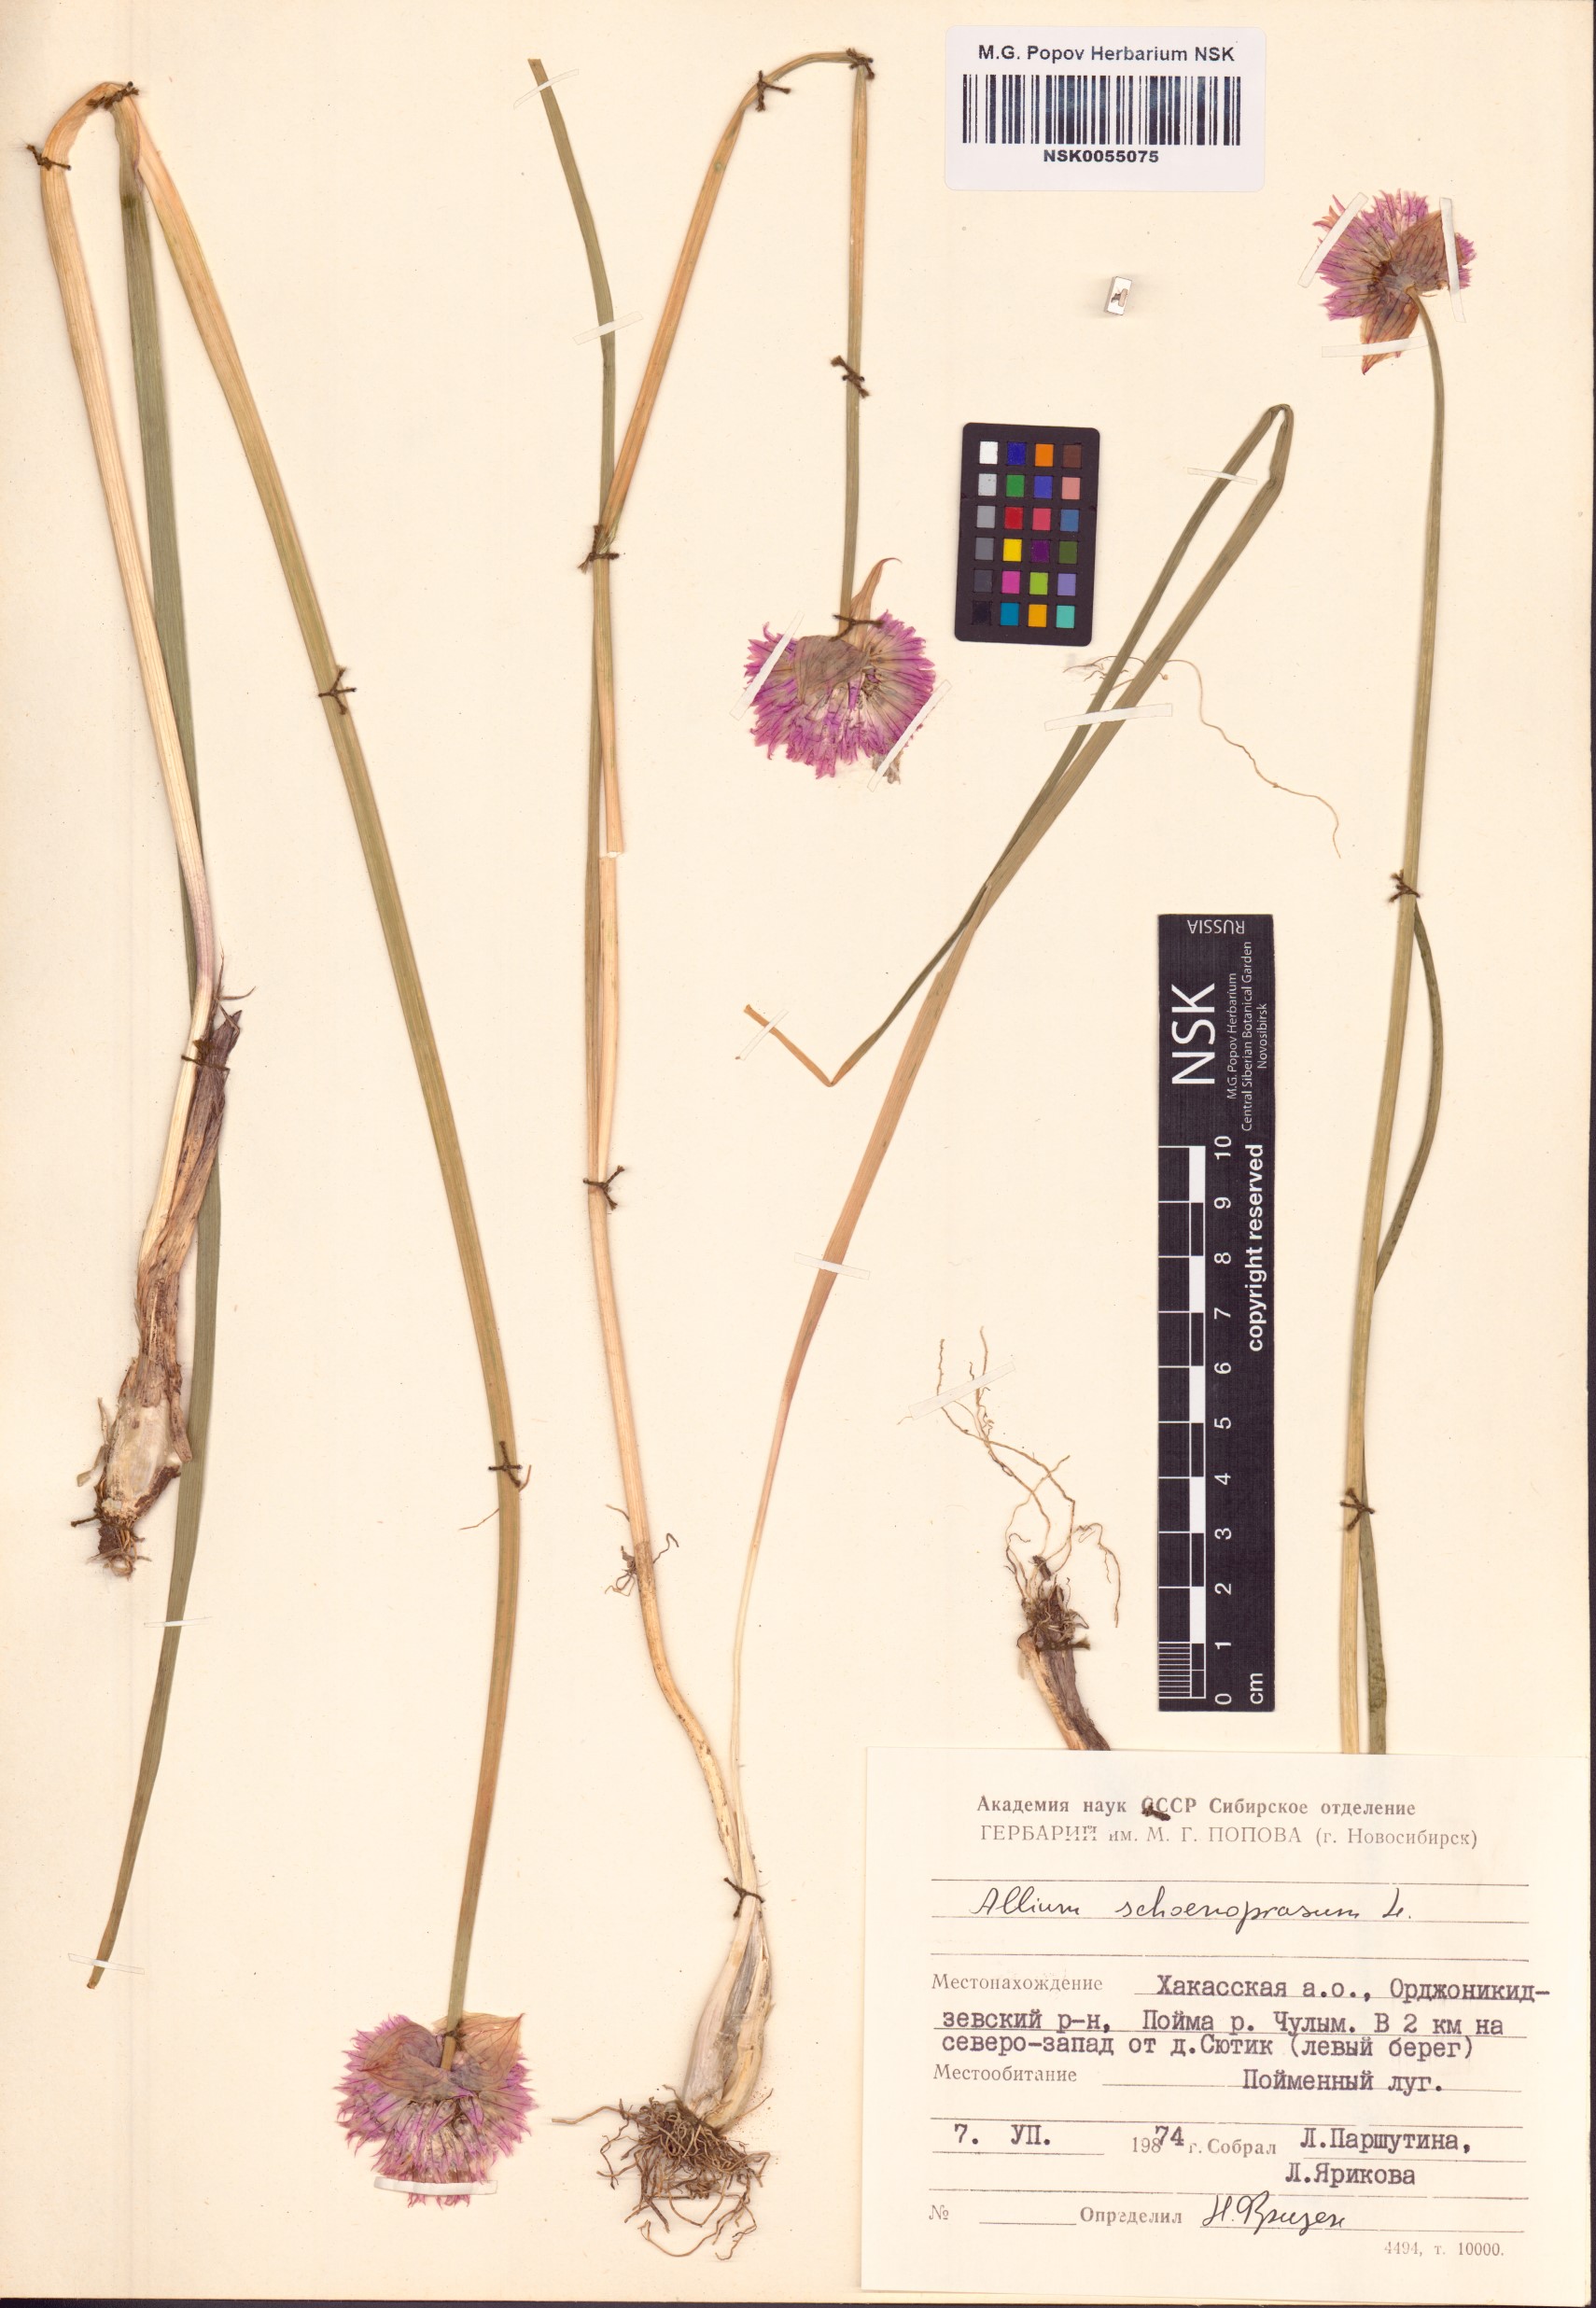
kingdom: Plantae
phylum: Tracheophyta
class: Liliopsida
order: Asparagales
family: Amaryllidaceae
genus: Allium
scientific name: Allium schoenoprasum
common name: Chives
